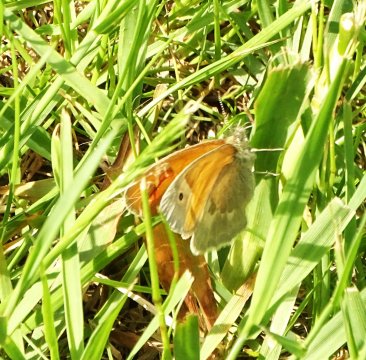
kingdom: Animalia
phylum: Arthropoda
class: Insecta
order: Lepidoptera
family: Nymphalidae
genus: Coenonympha
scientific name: Coenonympha tullia
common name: Large Heath
